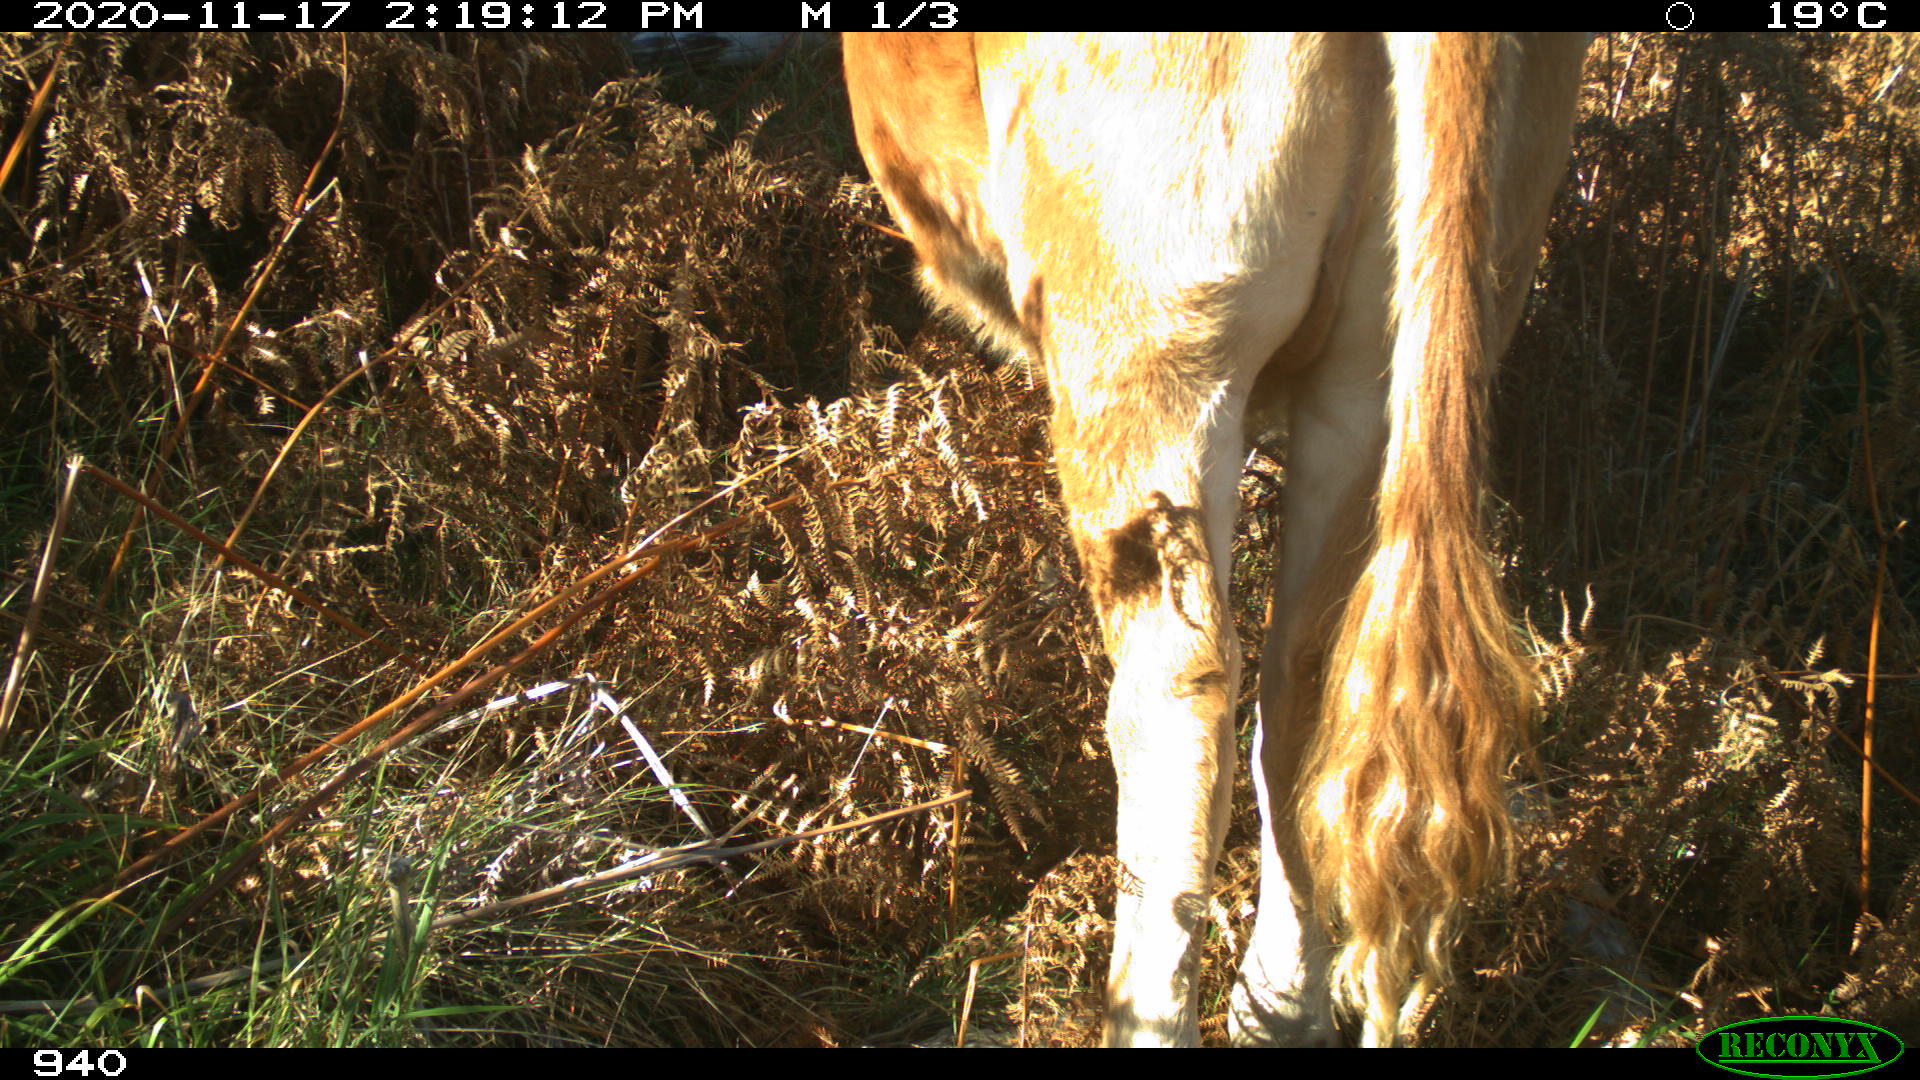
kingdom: Animalia
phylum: Chordata
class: Mammalia
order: Artiodactyla
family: Bovidae
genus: Bos
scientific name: Bos taurus
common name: Domesticated cattle
